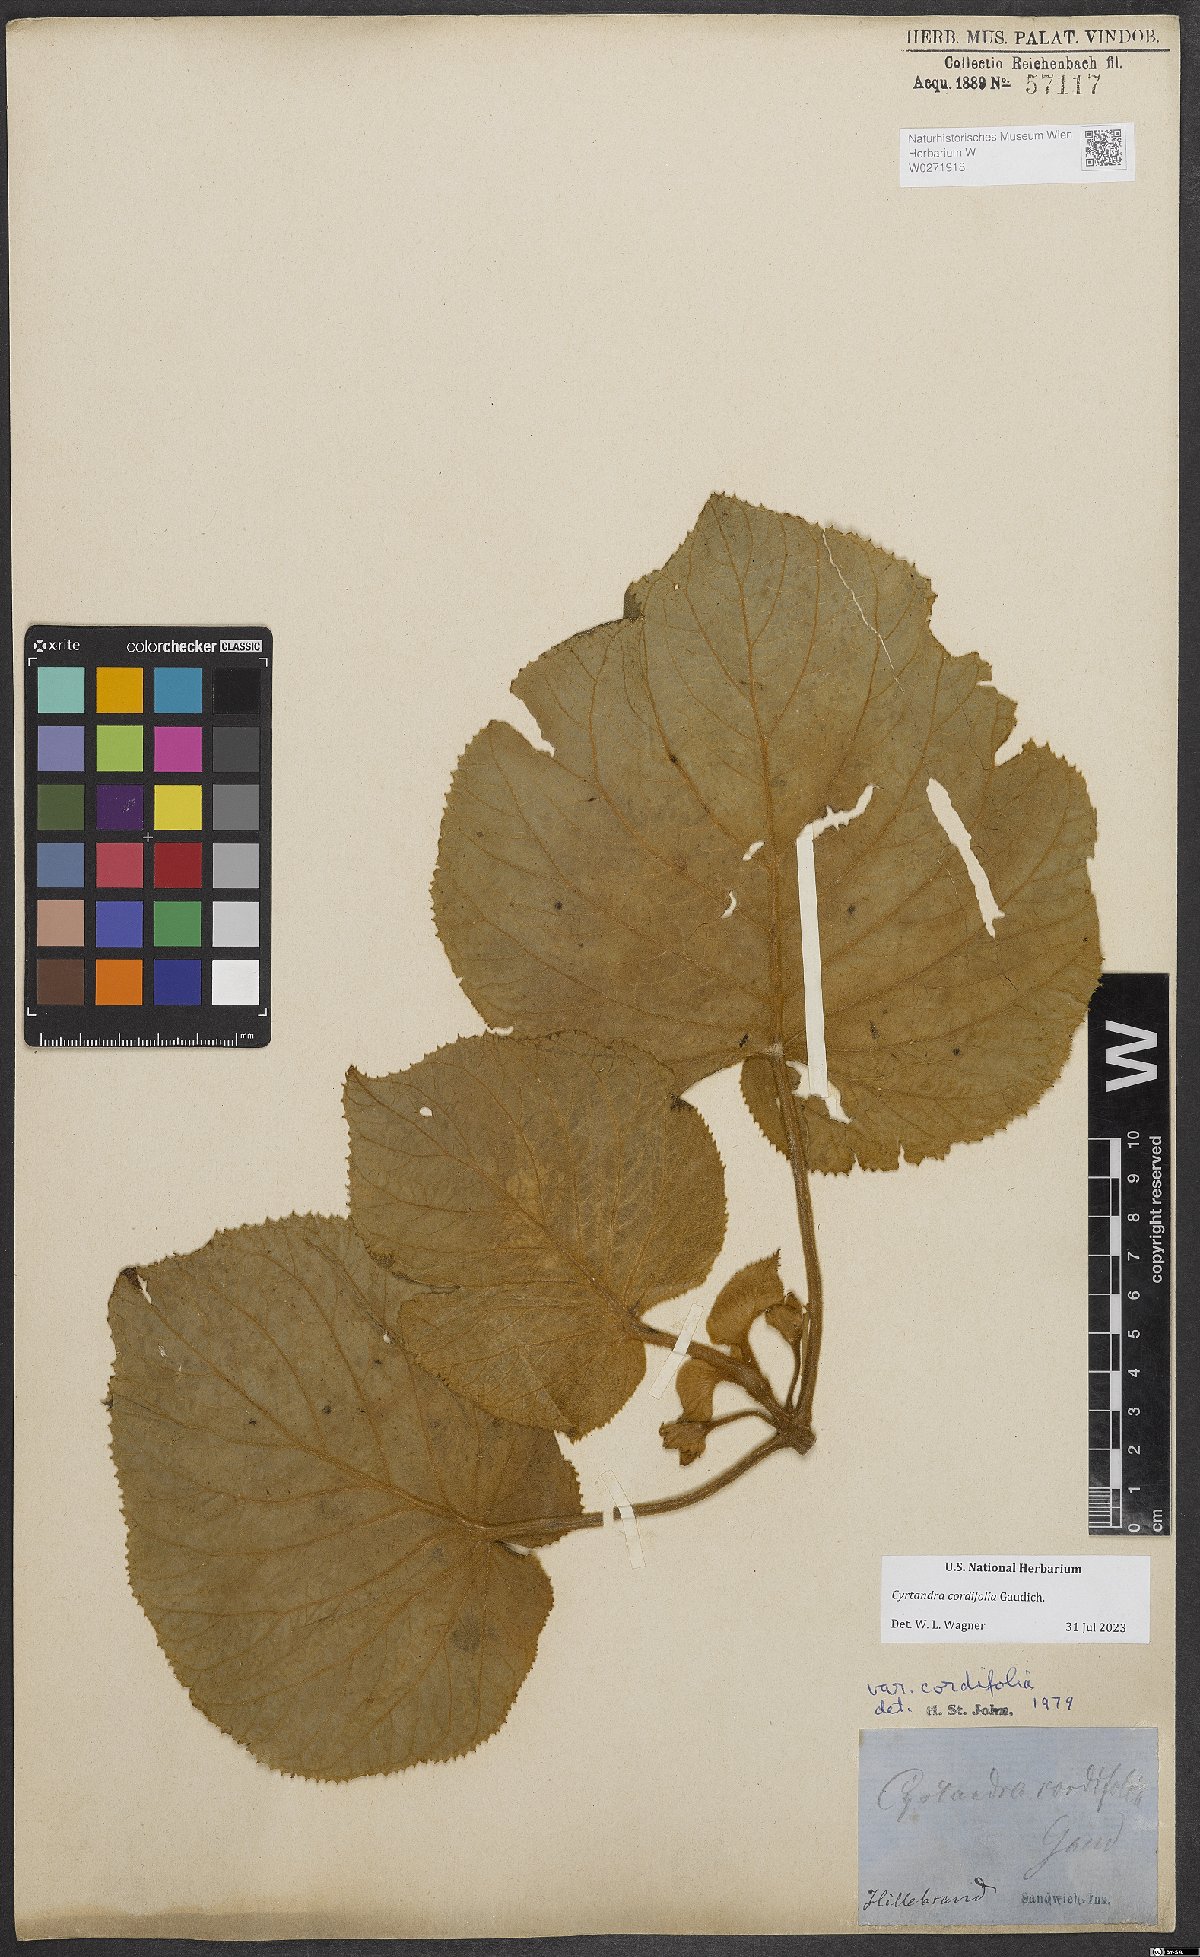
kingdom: Plantae
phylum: Tracheophyta
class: Magnoliopsida
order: Lamiales
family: Gesneriaceae
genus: Cyrtandra
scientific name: Cyrtandra cordifolia
